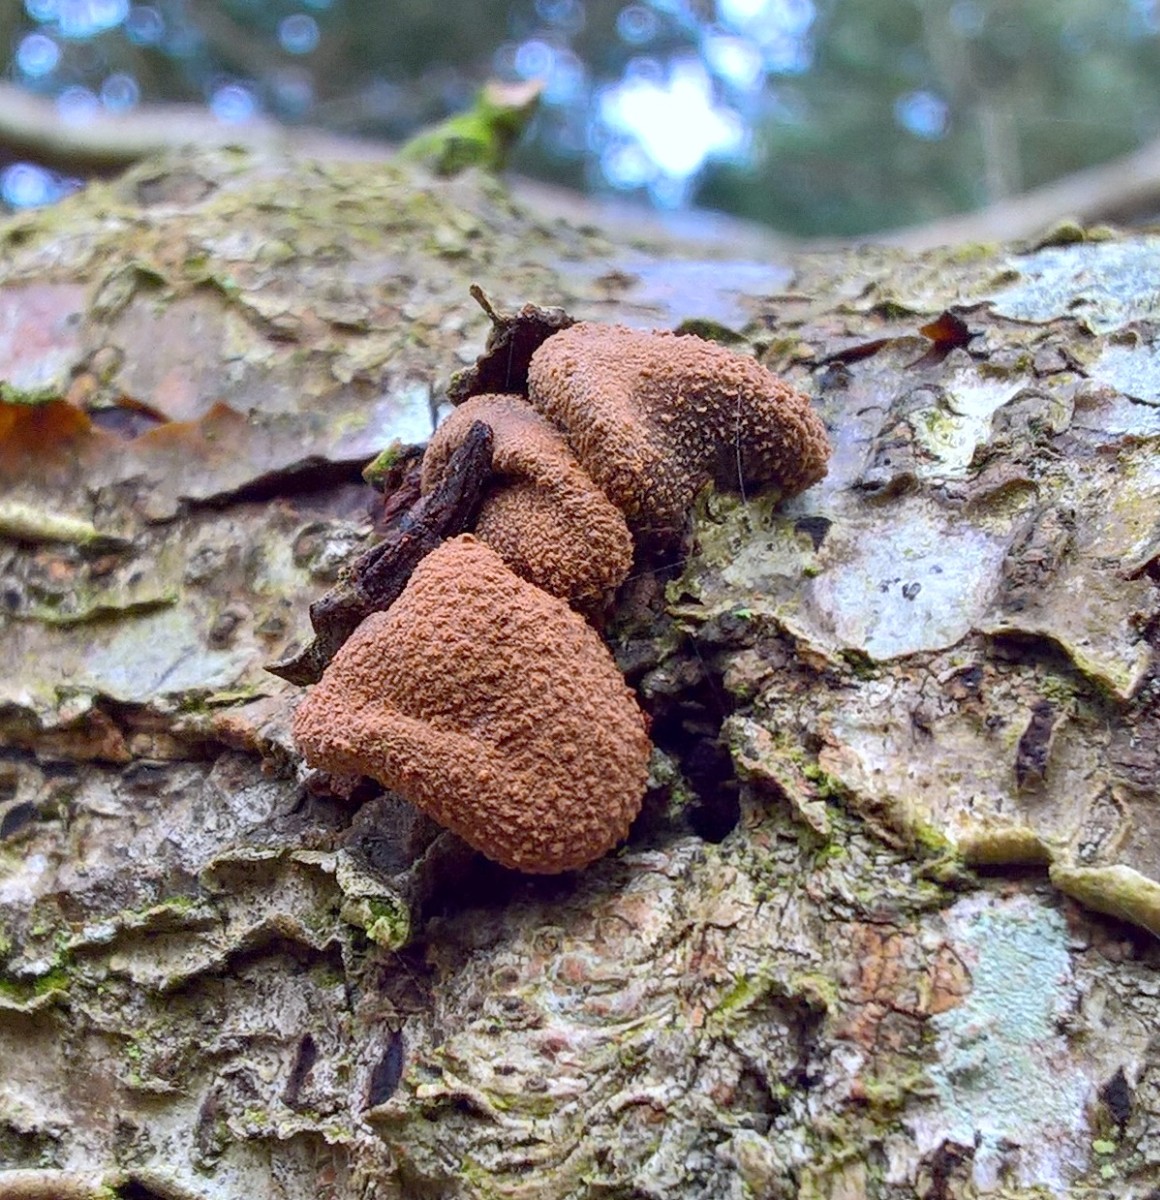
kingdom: Fungi
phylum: Ascomycota
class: Leotiomycetes
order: Helotiales
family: Cenangiaceae
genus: Encoelia
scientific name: Encoelia furfuracea
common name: hassel-læderskive
